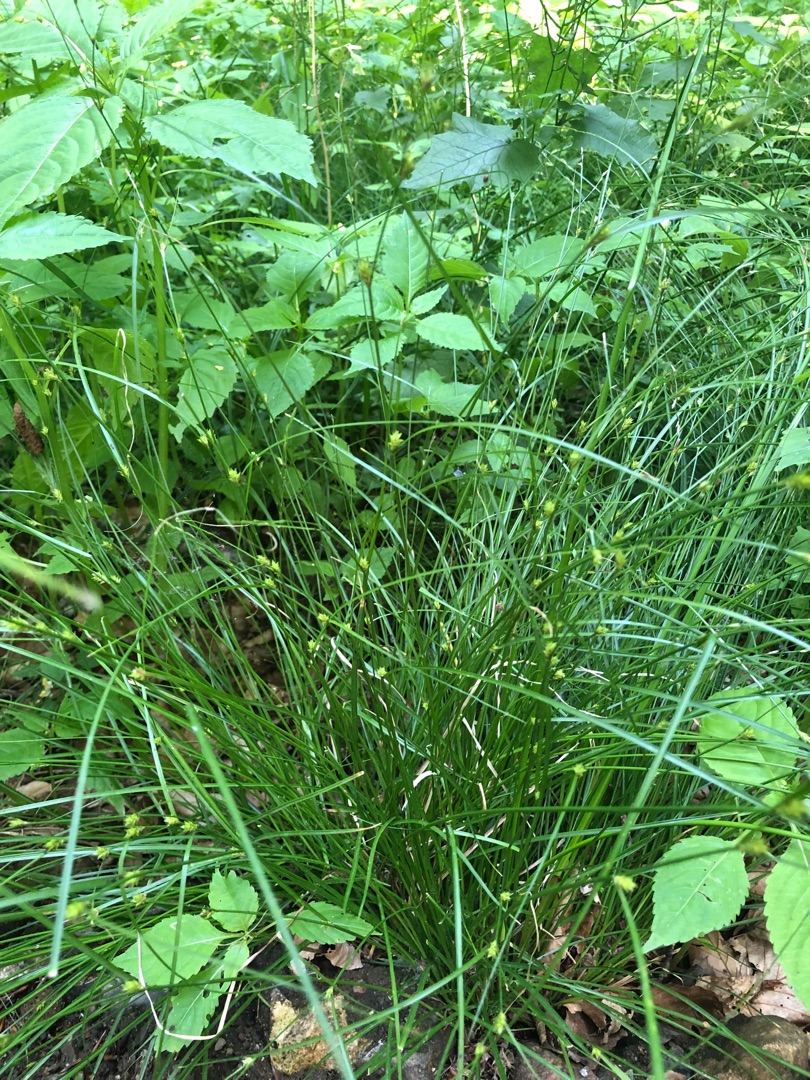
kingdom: Plantae
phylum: Tracheophyta
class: Liliopsida
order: Poales
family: Cyperaceae
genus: Carex
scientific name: Carex remota
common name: Akselblomstret star
